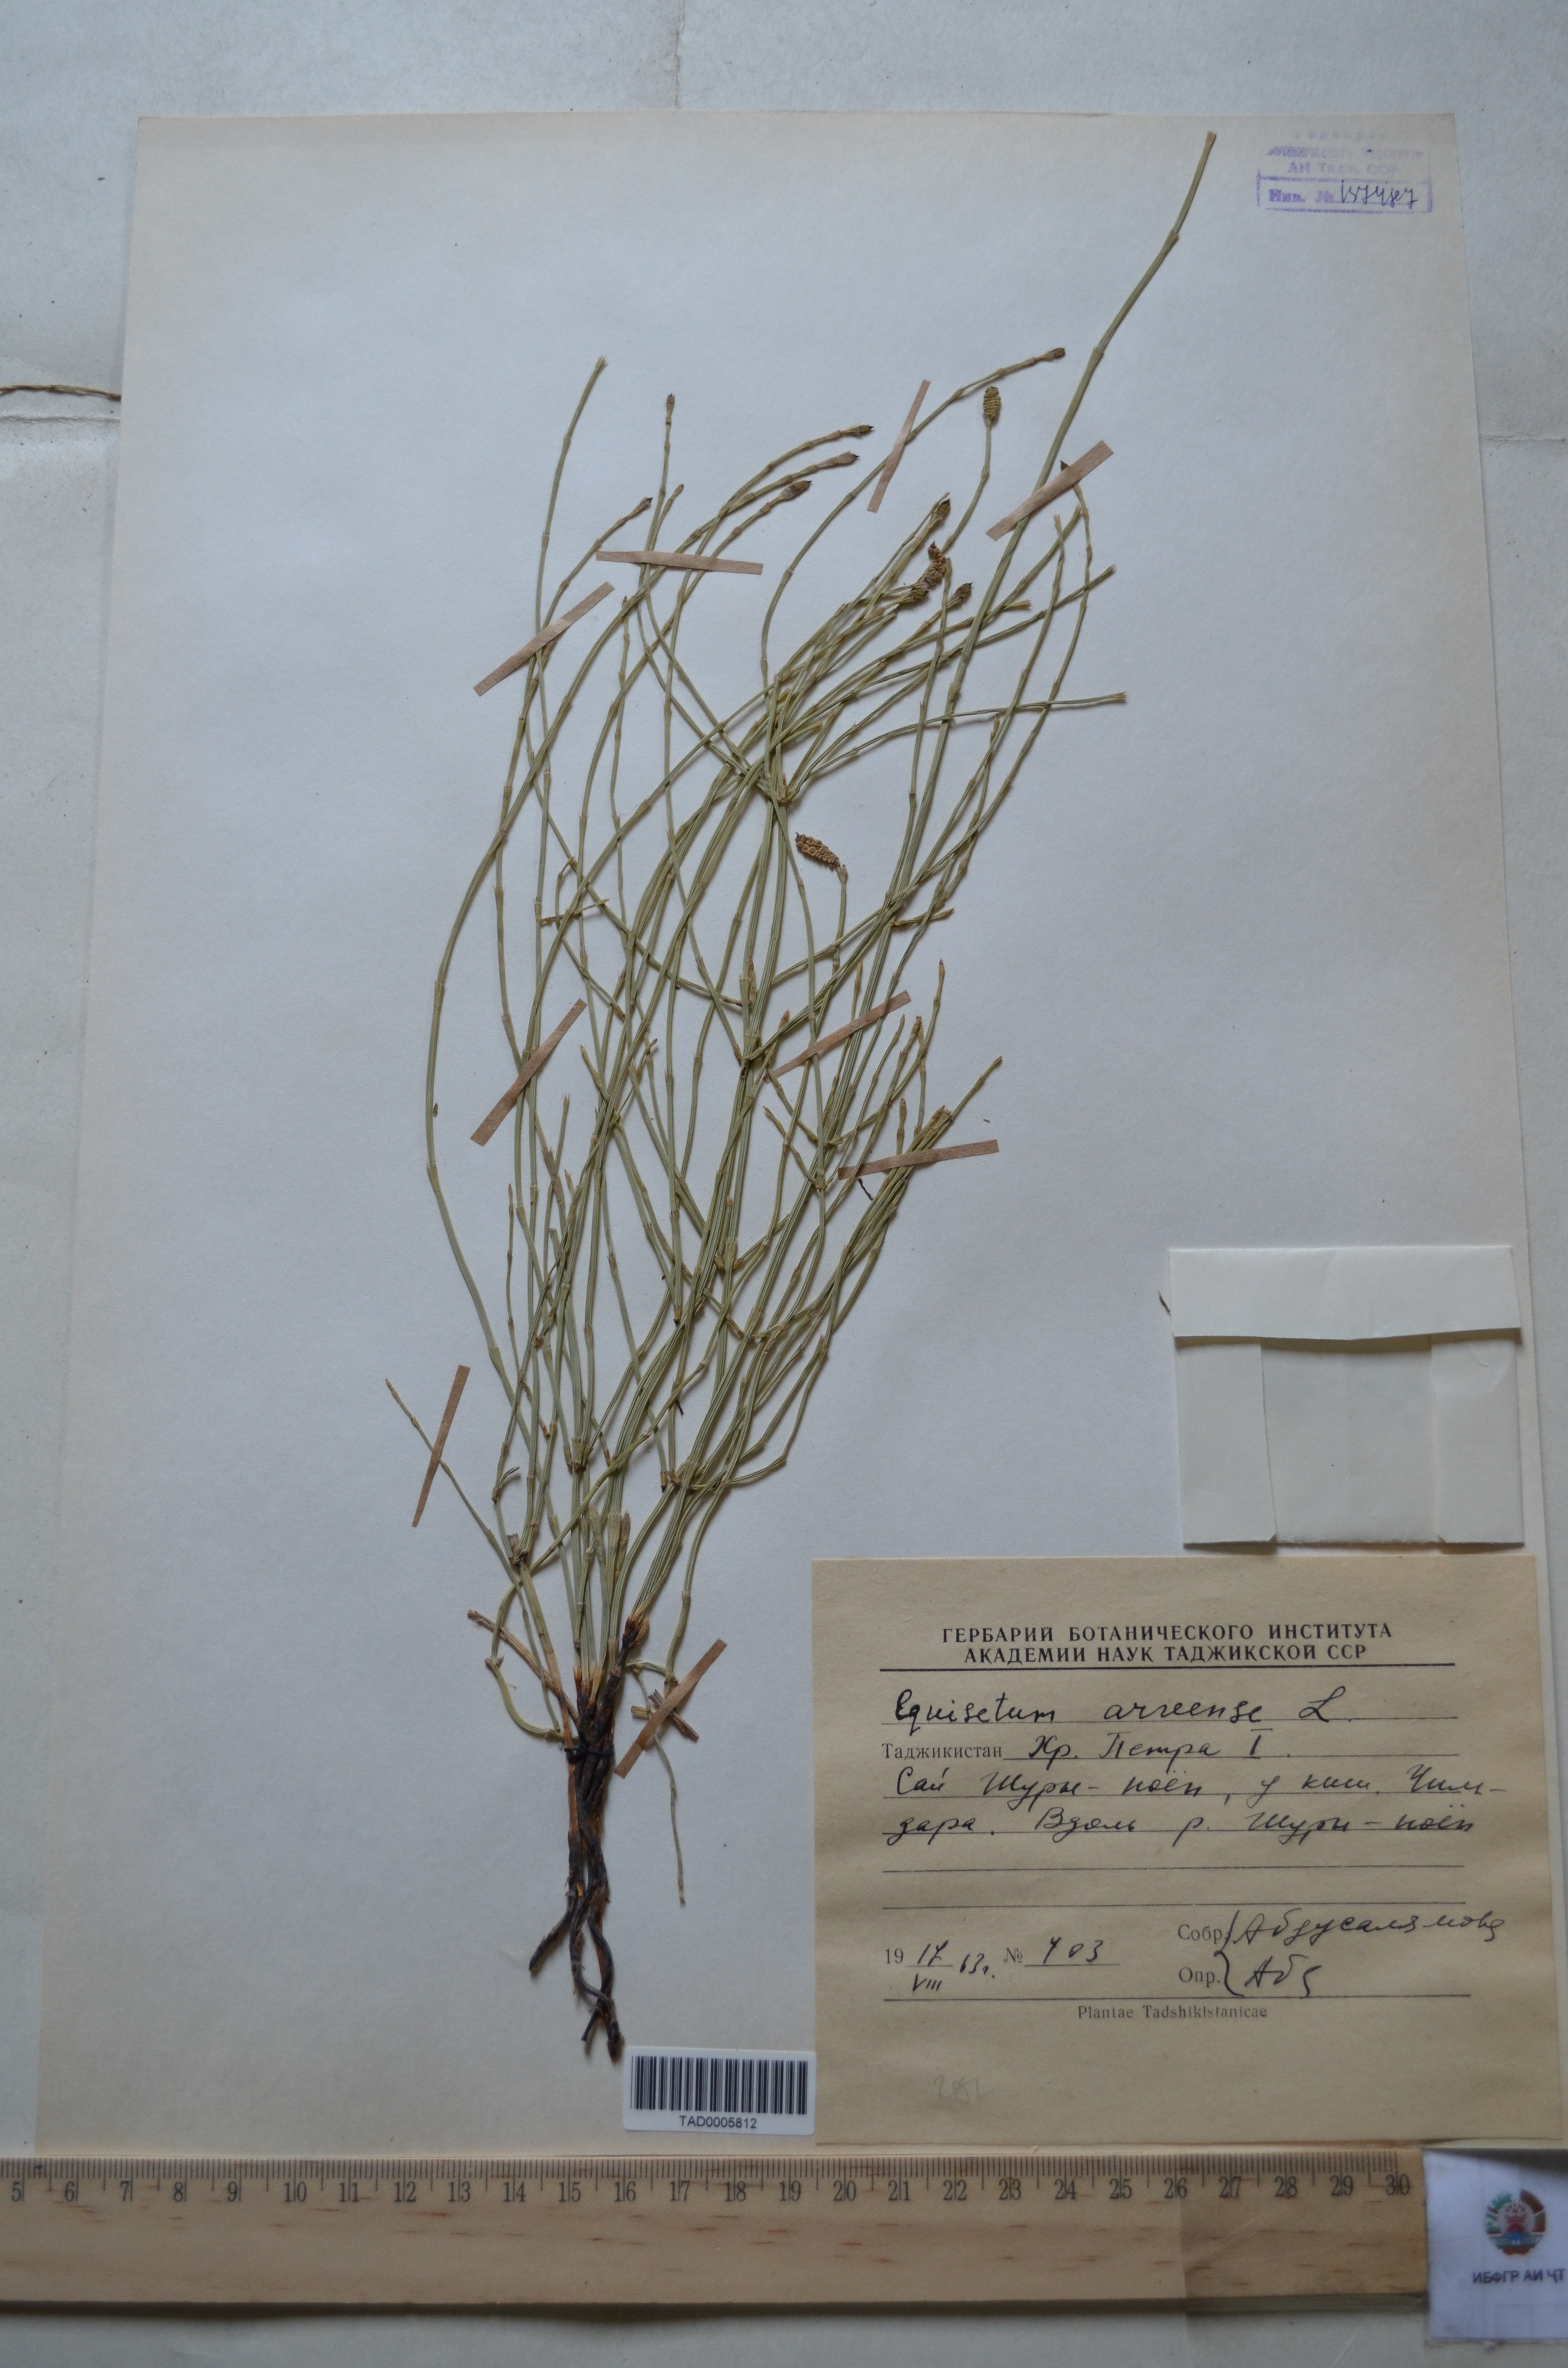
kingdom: Plantae
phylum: Tracheophyta
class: Polypodiopsida
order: Equisetales
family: Equisetaceae
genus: Equisetum
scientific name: Equisetum arvense
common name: Field horsetail
